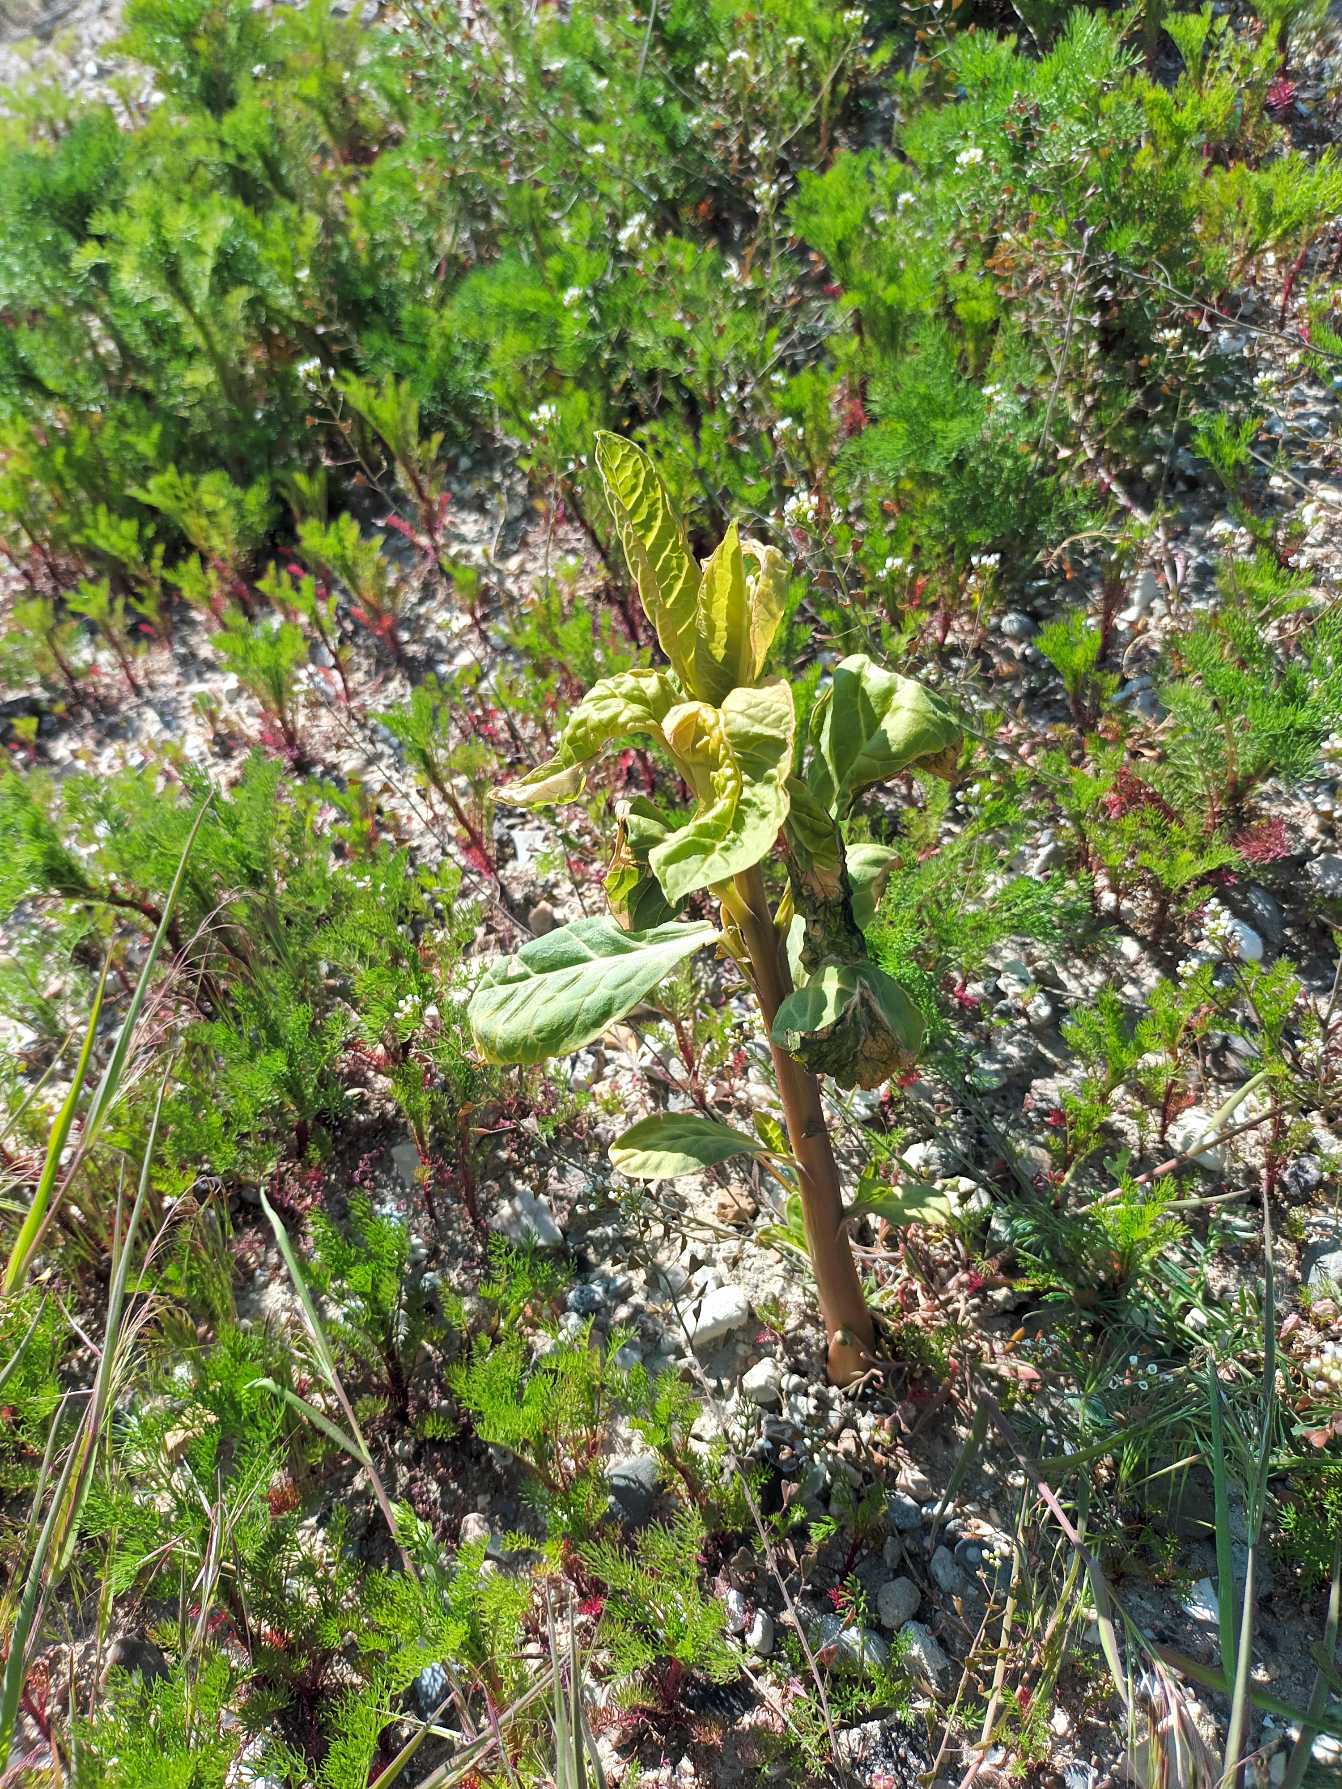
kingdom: Plantae
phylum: Tracheophyta
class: Magnoliopsida
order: Caryophyllales
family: Phytolaccaceae
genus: Phytolacca
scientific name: Phytolacca acinosa
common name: Asiatisk kermesbær
